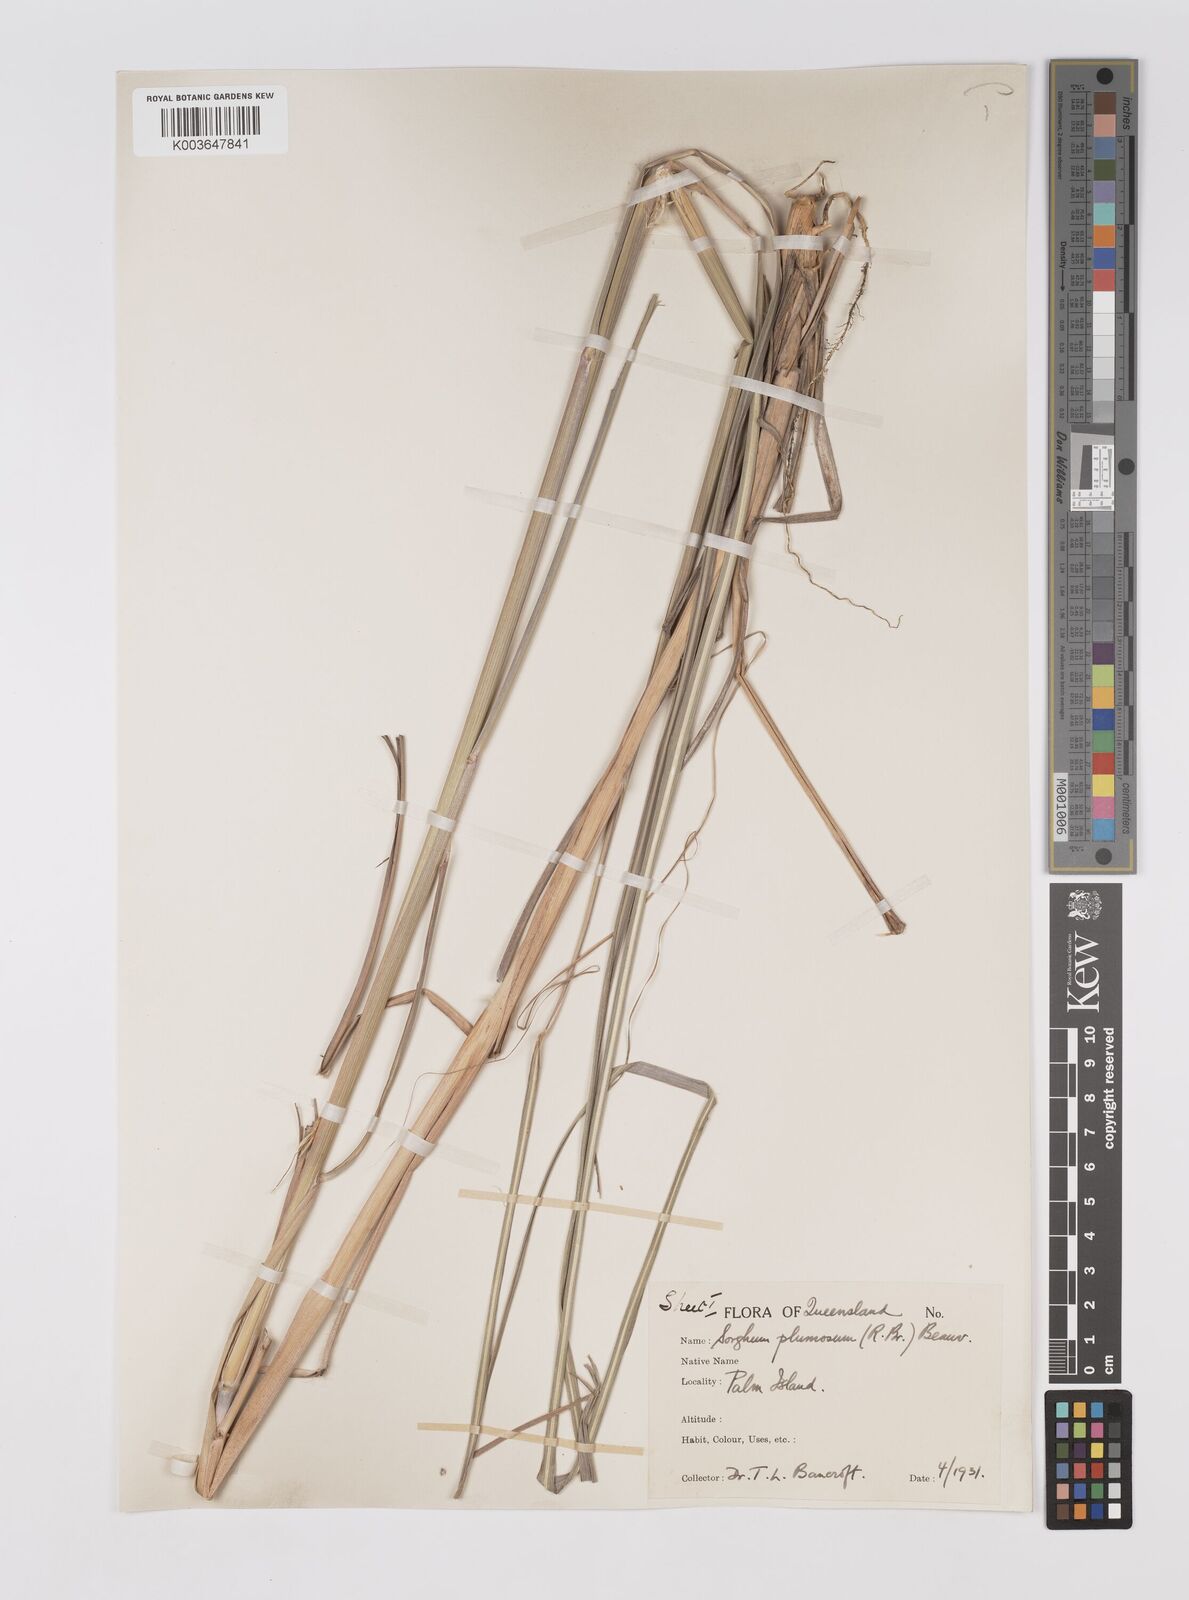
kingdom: Plantae
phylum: Tracheophyta
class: Liliopsida
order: Poales
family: Poaceae
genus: Sarga
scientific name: Sarga plumosa
